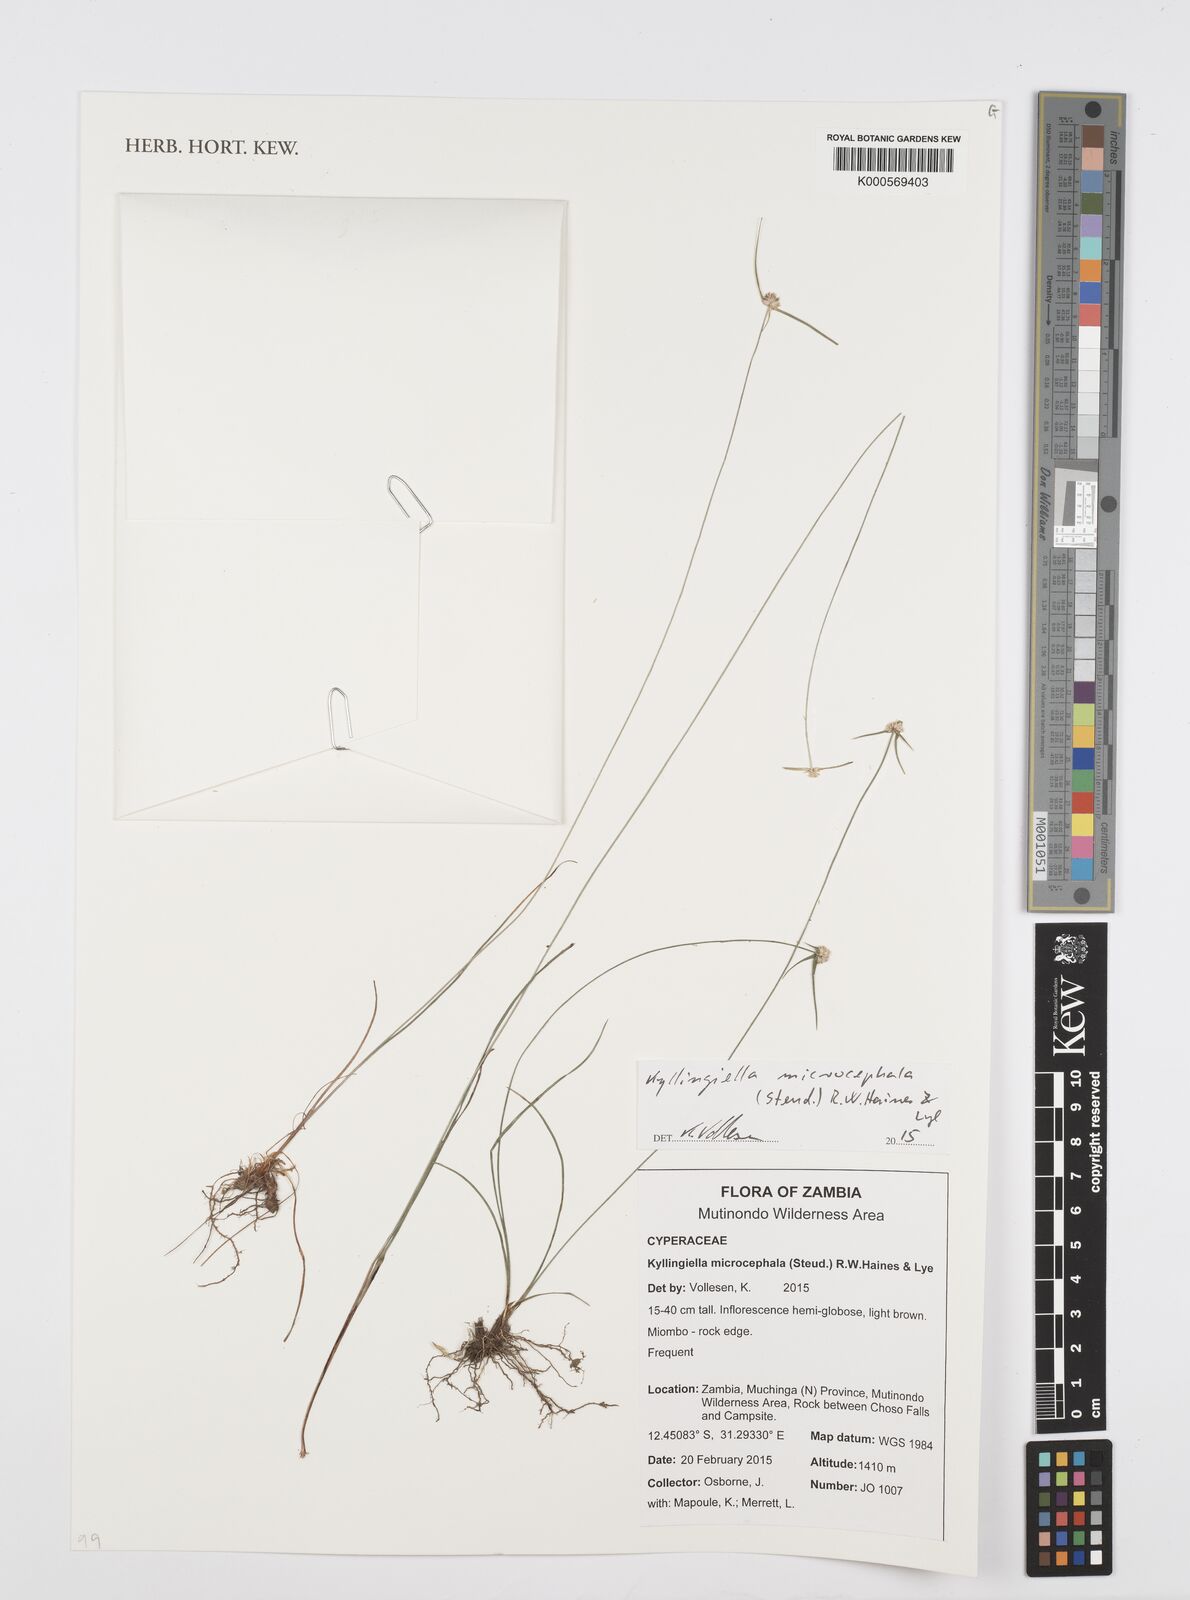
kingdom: Plantae
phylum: Tracheophyta
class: Liliopsida
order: Poales
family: Cyperaceae
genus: Cyperus
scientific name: Cyperus microcephalus
